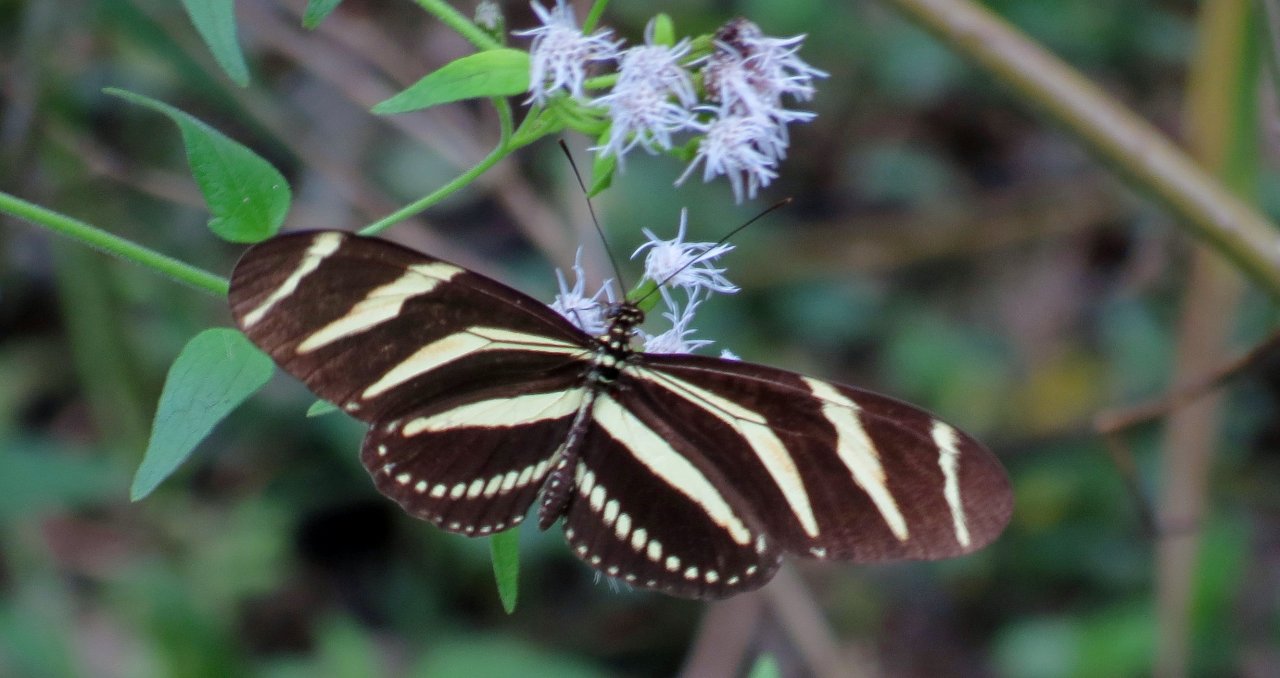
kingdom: Animalia
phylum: Arthropoda
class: Insecta
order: Lepidoptera
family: Nymphalidae
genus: Heliconius
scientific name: Heliconius charithonia
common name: Zebra Longwing
